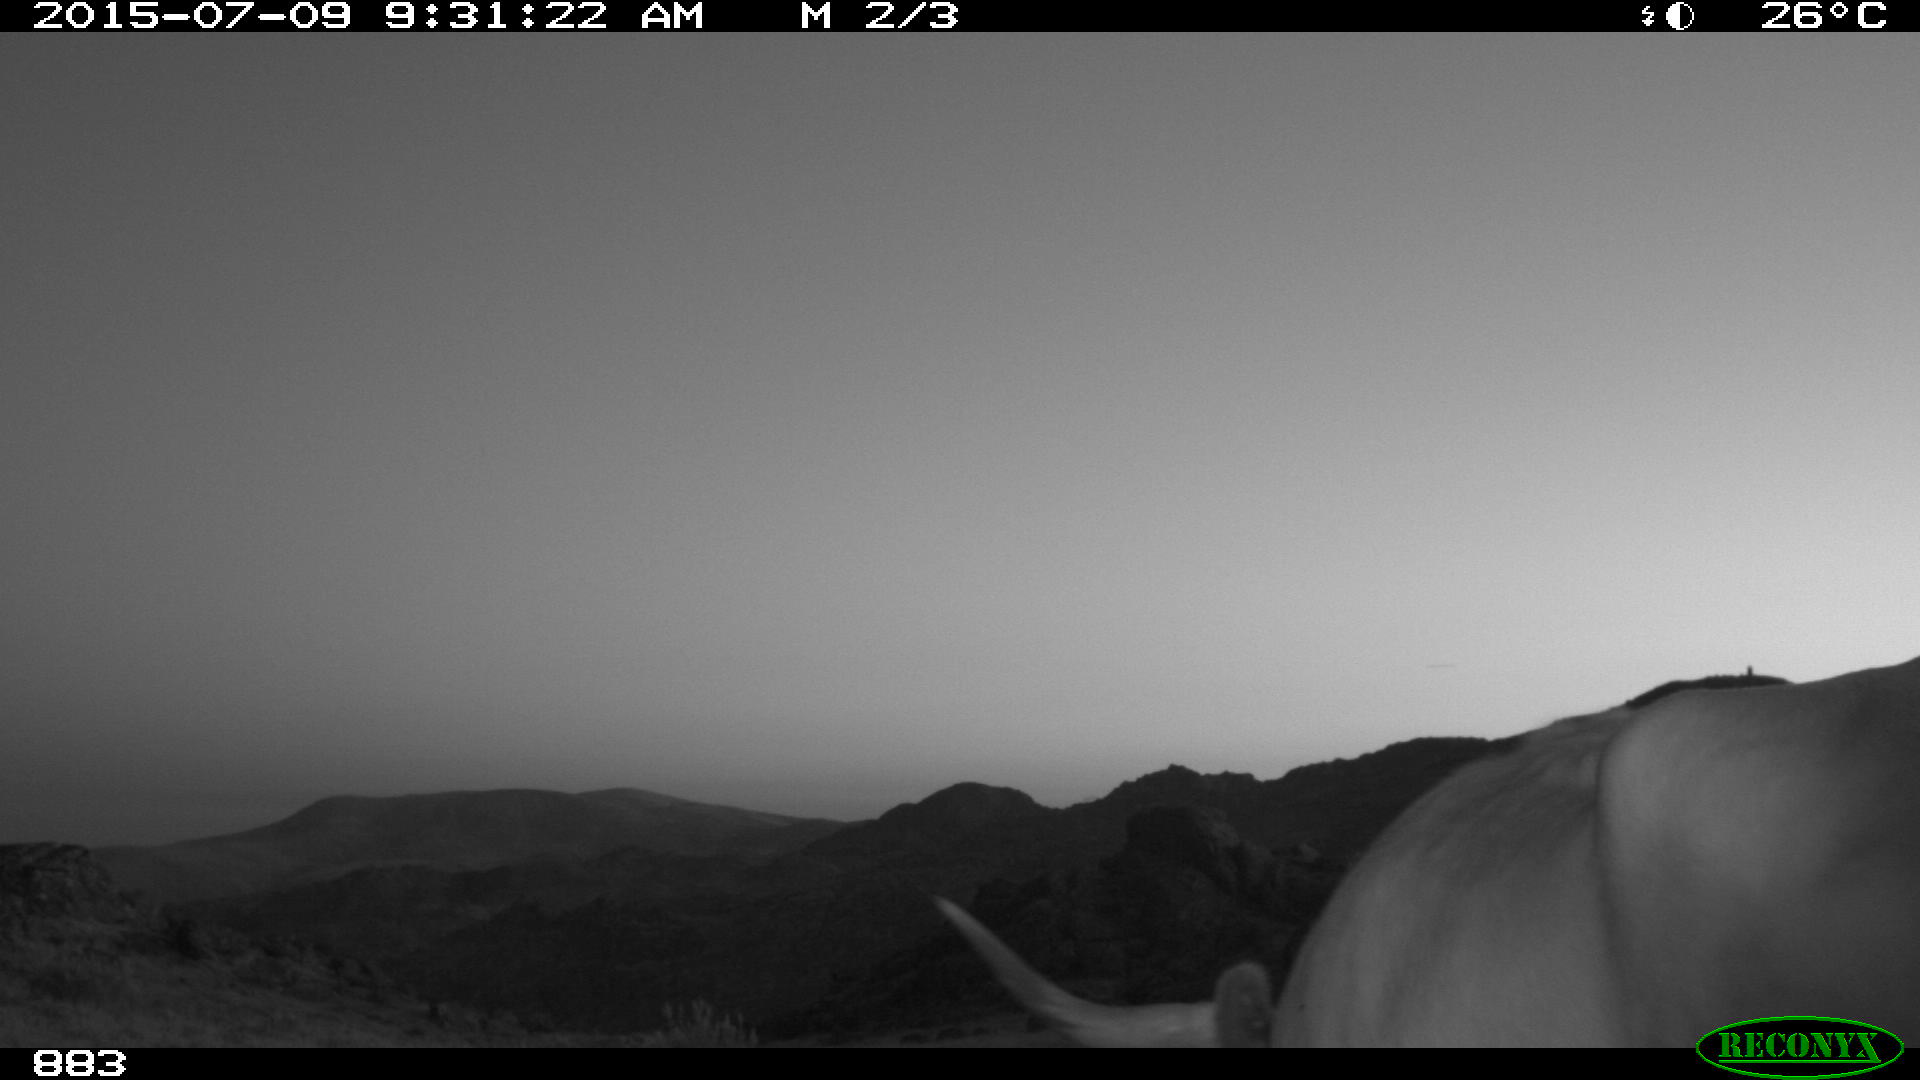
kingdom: Animalia
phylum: Chordata
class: Mammalia
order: Artiodactyla
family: Bovidae
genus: Bos
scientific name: Bos taurus
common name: Domesticated cattle
